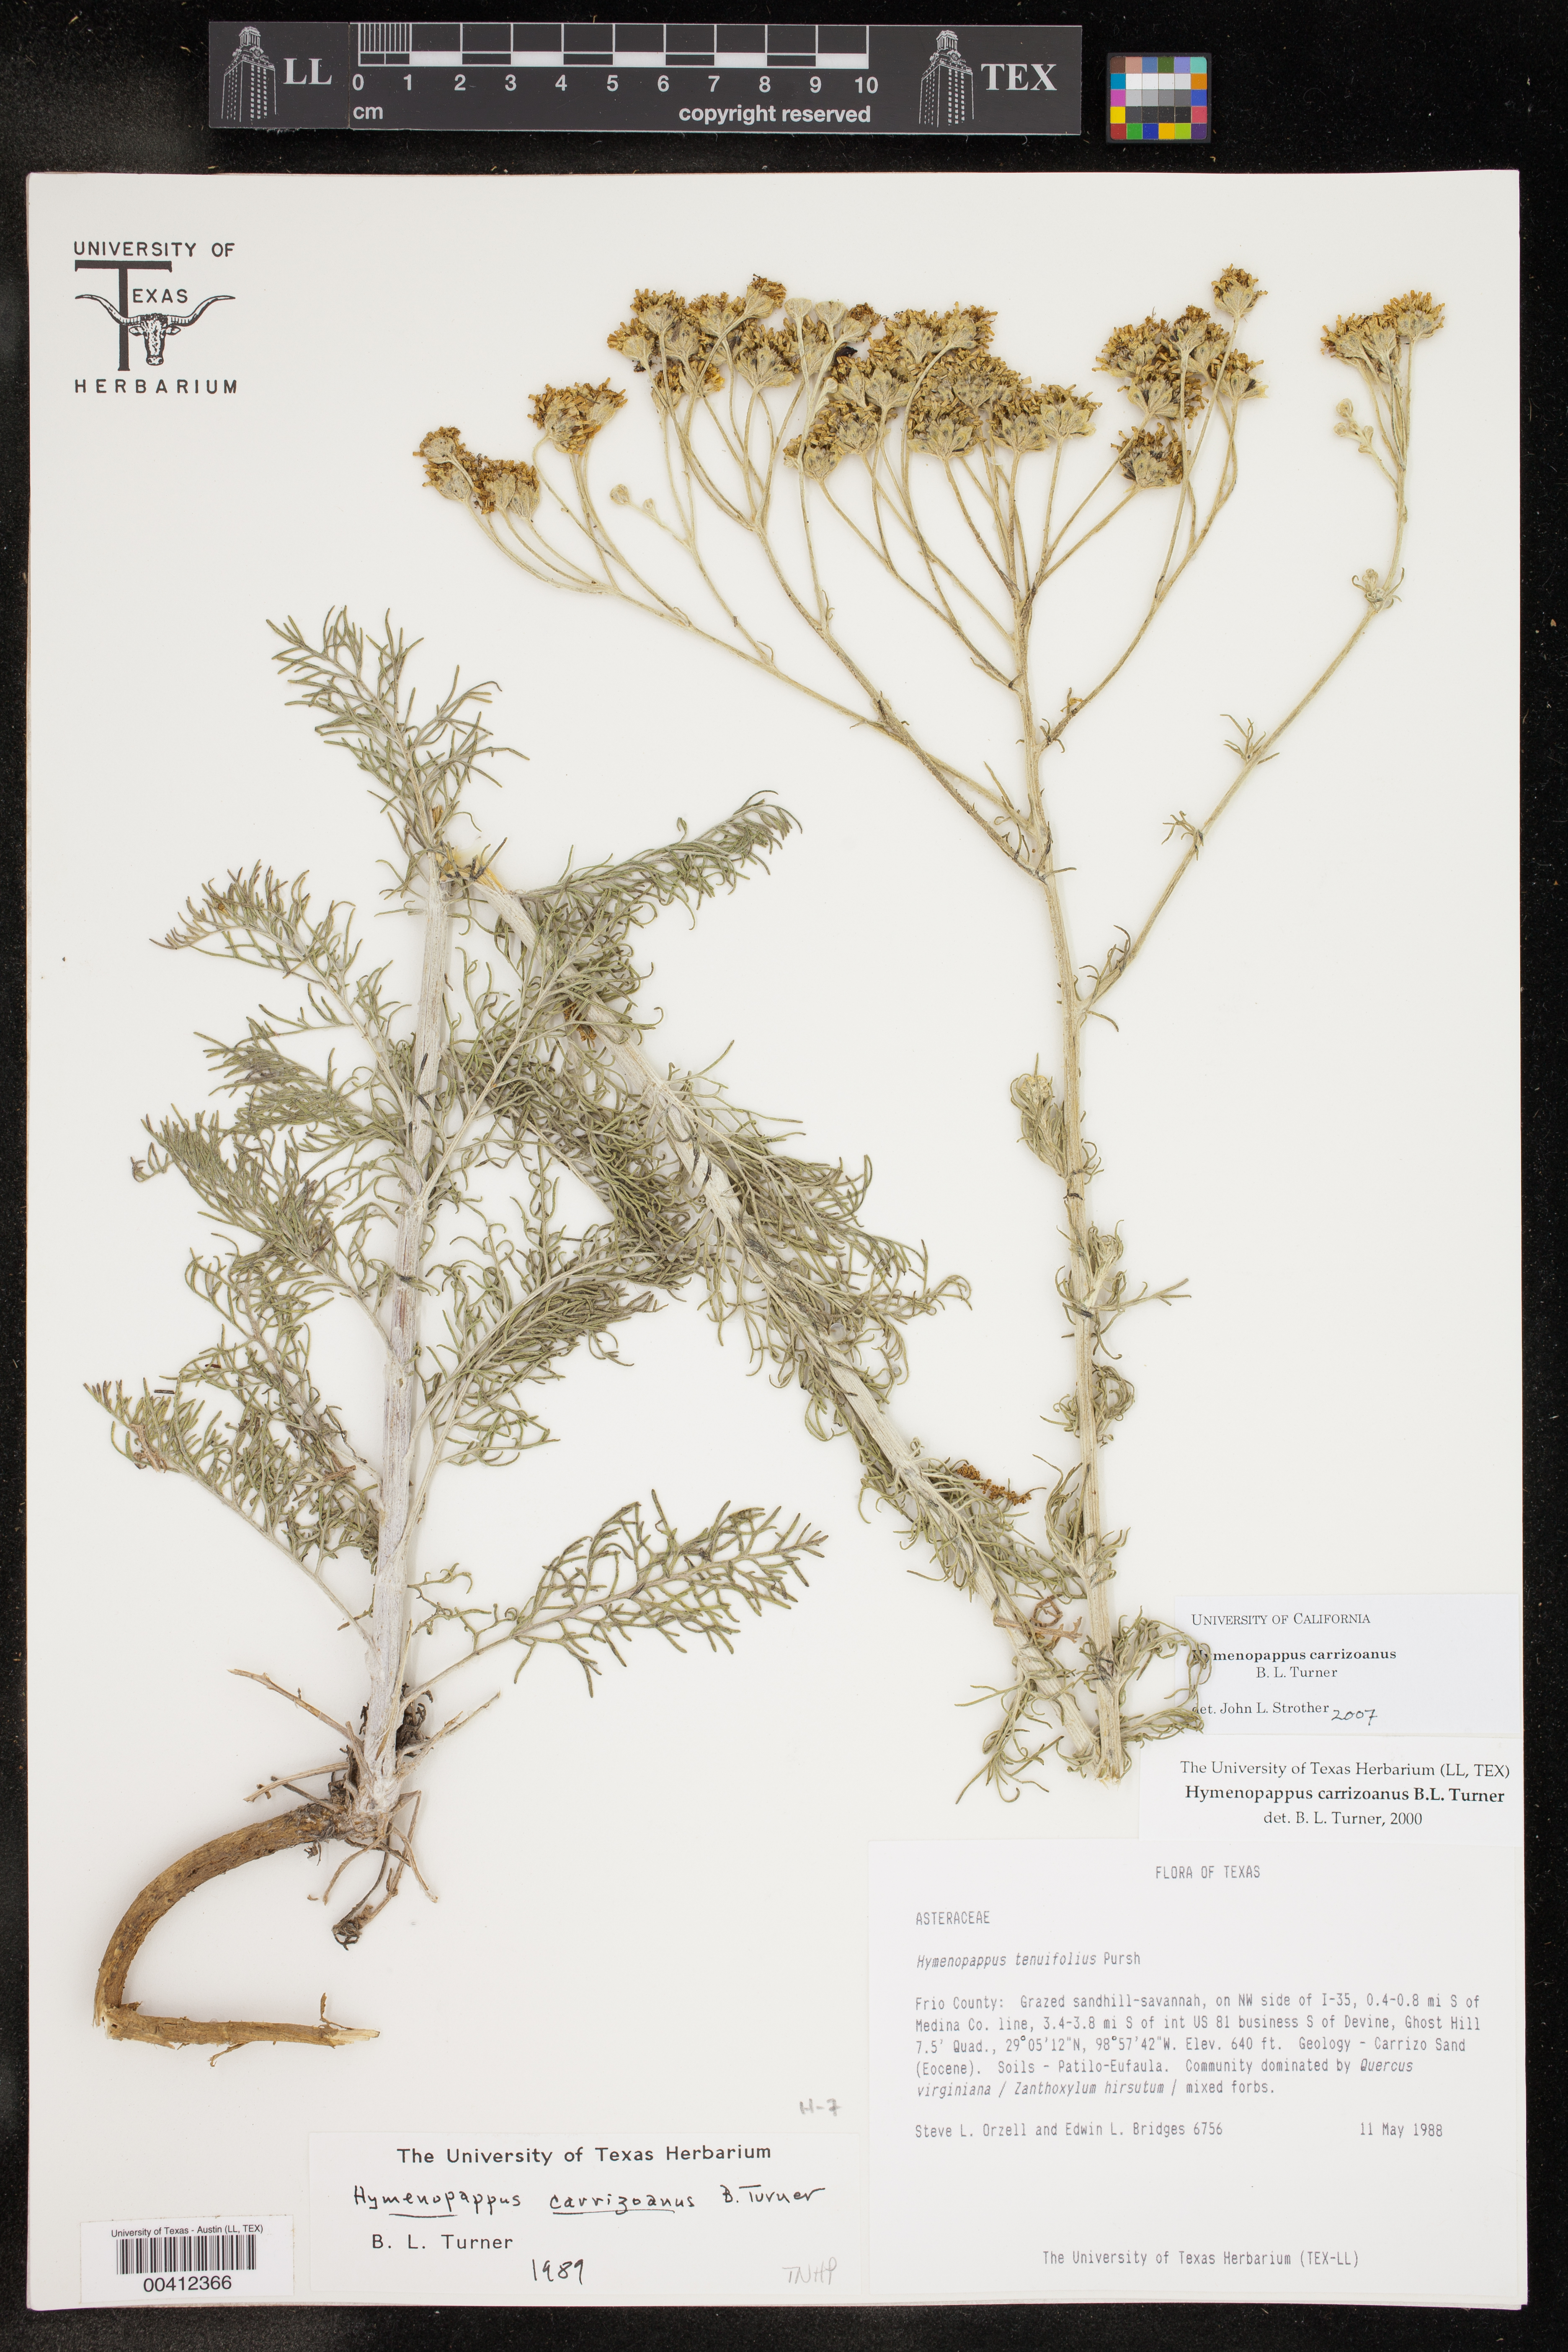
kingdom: Plantae
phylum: Tracheophyta
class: Magnoliopsida
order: Asterales
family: Asteraceae
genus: Hymenopappus
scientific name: Hymenopappus carrizoanus
